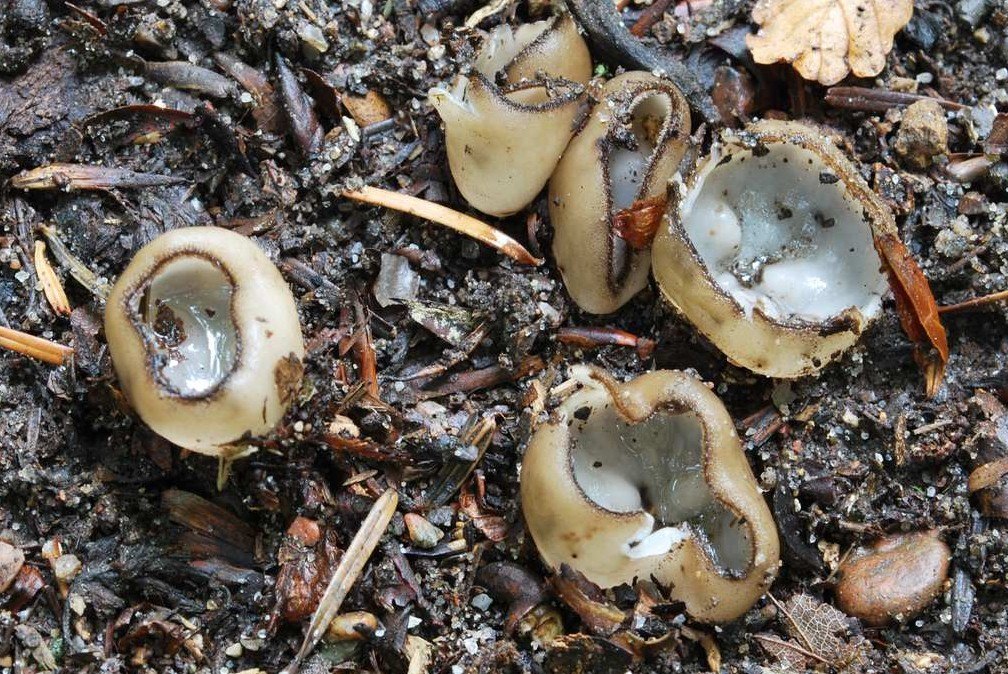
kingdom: Fungi
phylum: Ascomycota
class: Pezizomycetes
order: Pezizales
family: Pyronemataceae
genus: Humaria
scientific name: Humaria hemisphaerica
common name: halvkugleformet børstebæger
